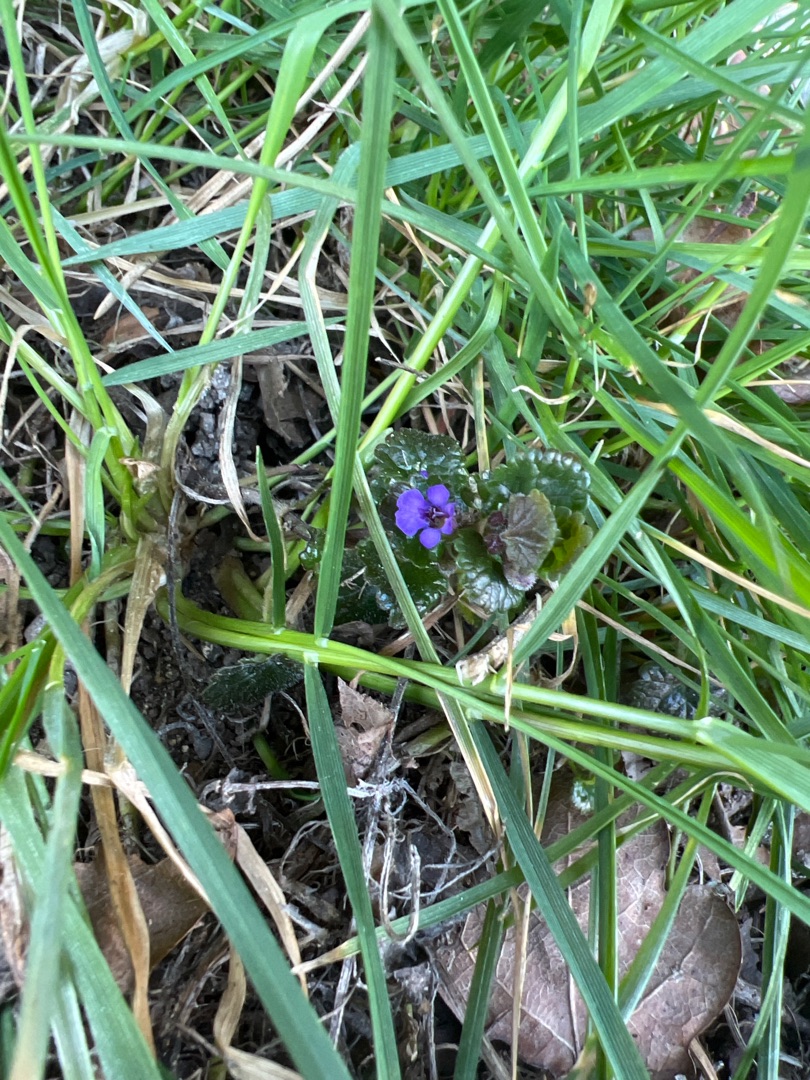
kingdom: Plantae
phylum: Tracheophyta
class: Magnoliopsida
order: Lamiales
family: Lamiaceae
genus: Glechoma
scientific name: Glechoma hederacea
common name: Korsknap
